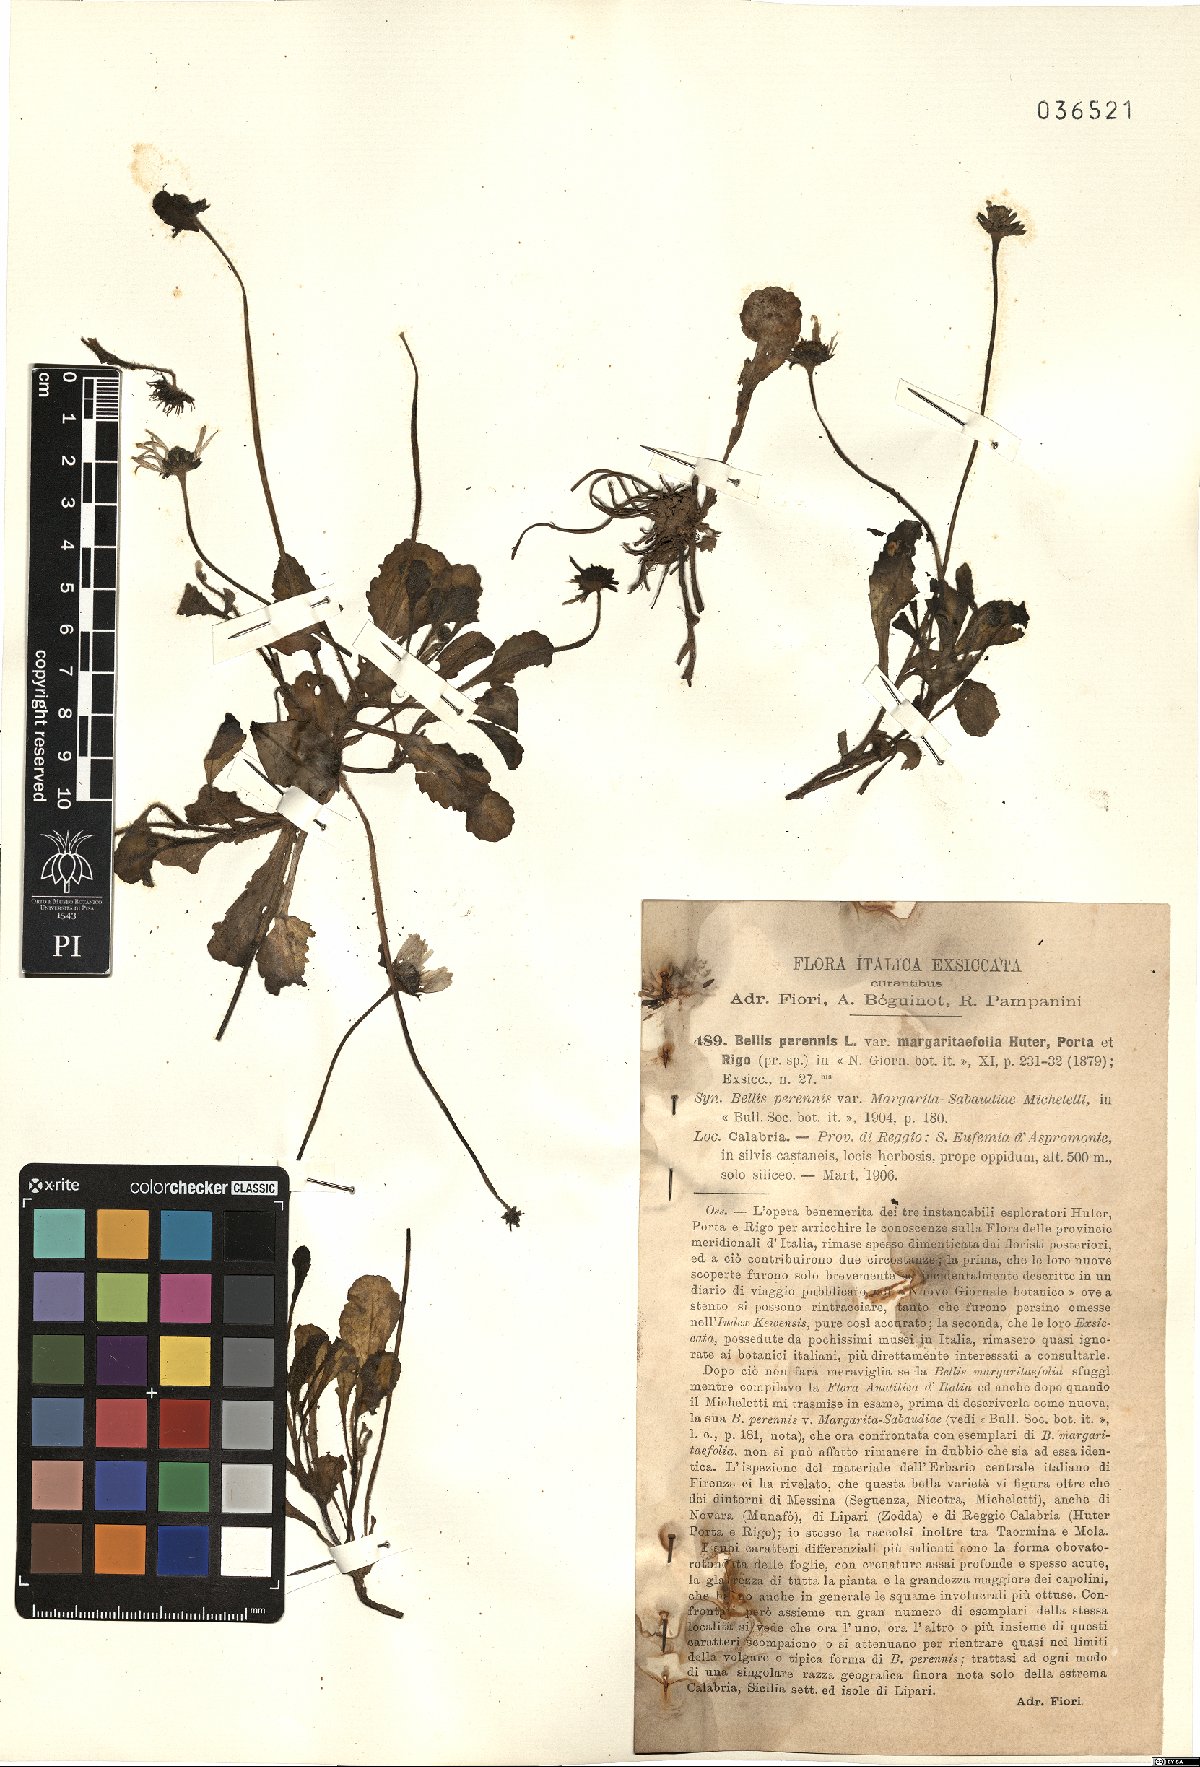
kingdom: Plantae
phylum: Tracheophyta
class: Magnoliopsida
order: Asterales
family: Asteraceae
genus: Bellis
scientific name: Bellis perennis
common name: Lawndaisy
